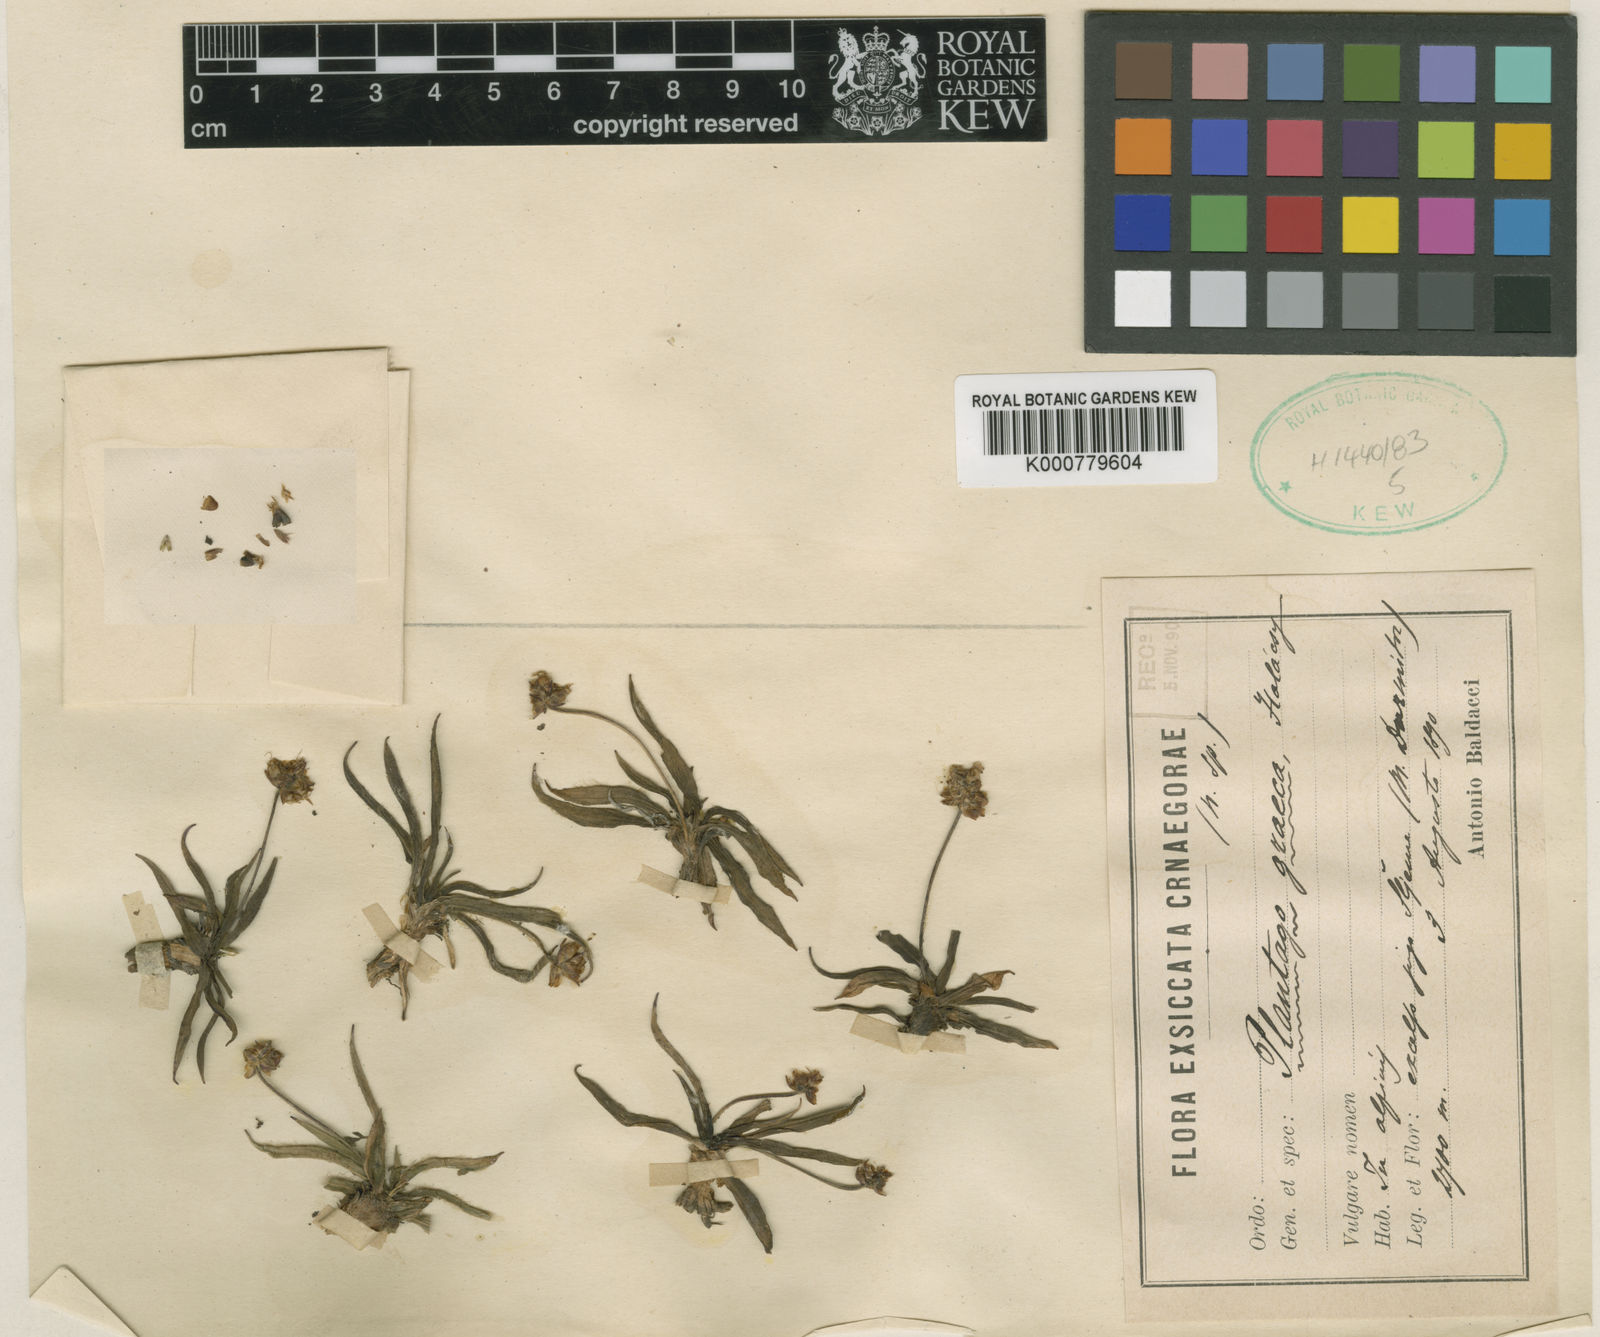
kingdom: Plantae
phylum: Tracheophyta
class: Magnoliopsida
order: Lamiales
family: Plantaginaceae
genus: Plantago
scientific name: Plantago atrata
